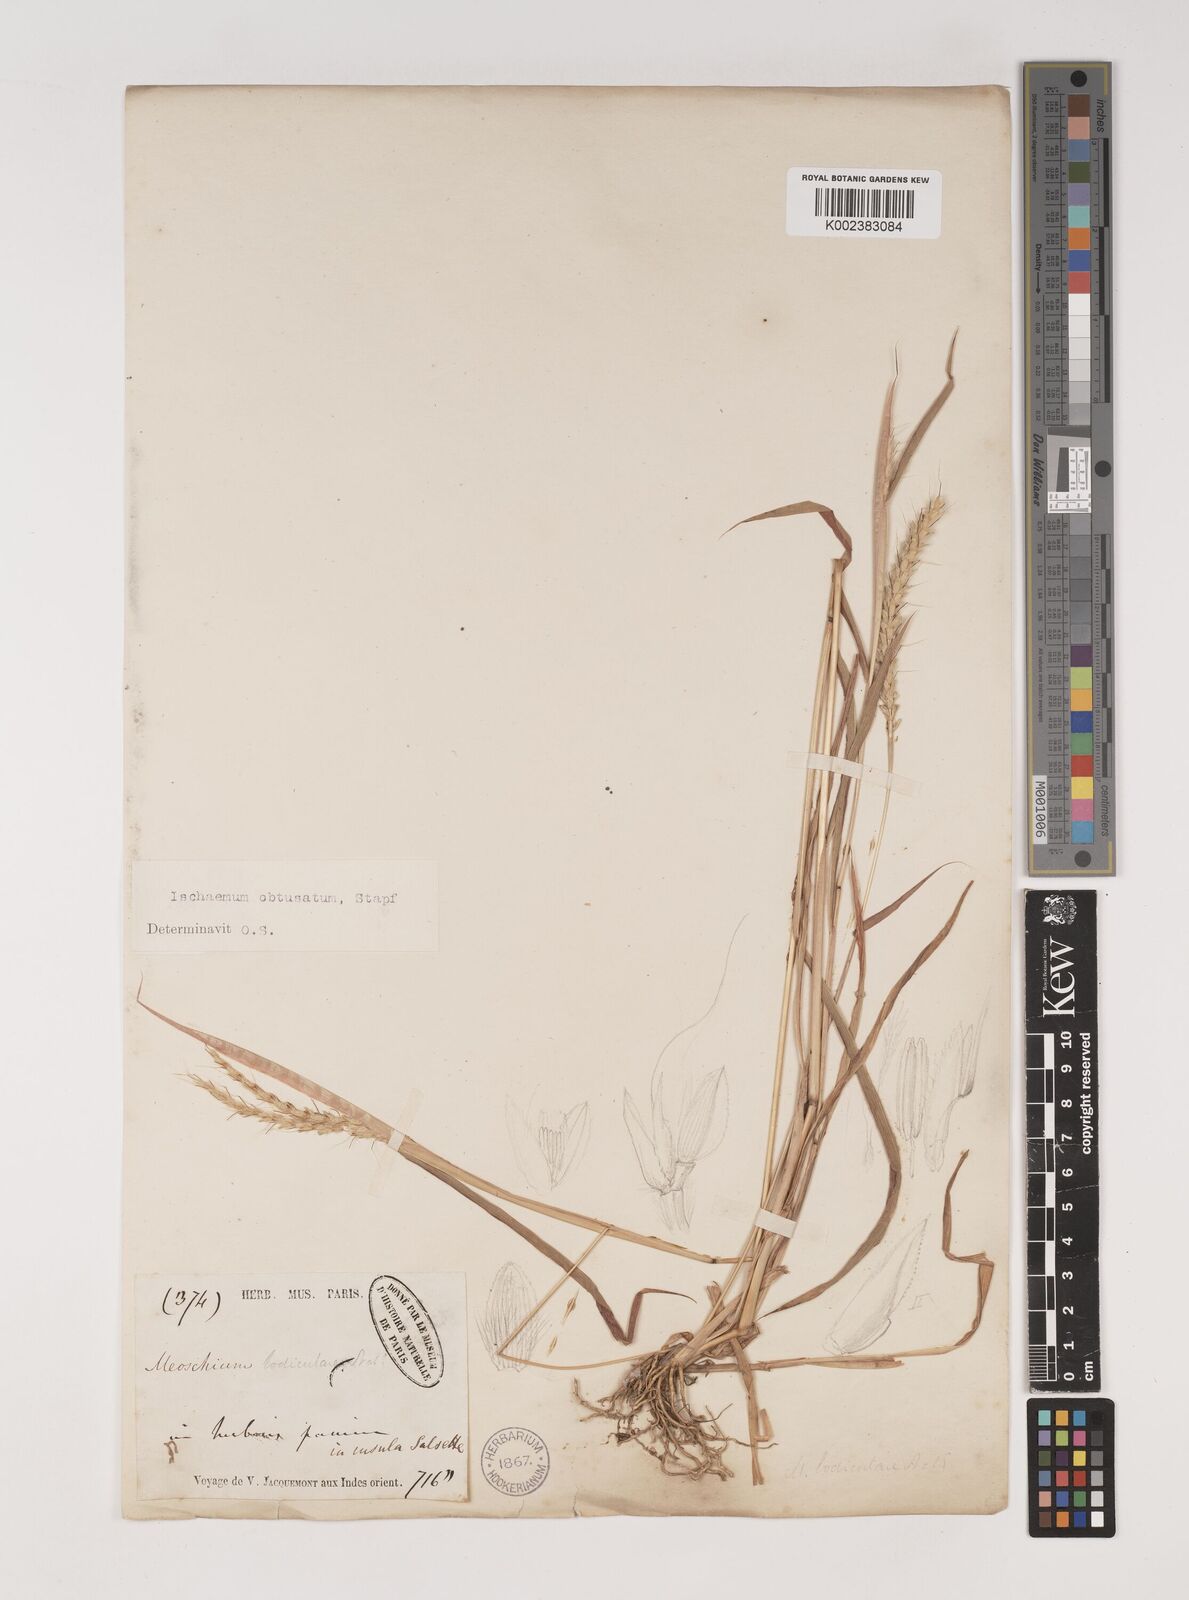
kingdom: Plantae
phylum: Tracheophyta
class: Liliopsida
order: Poales
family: Poaceae
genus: Ischaemum
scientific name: Ischaemum molle
